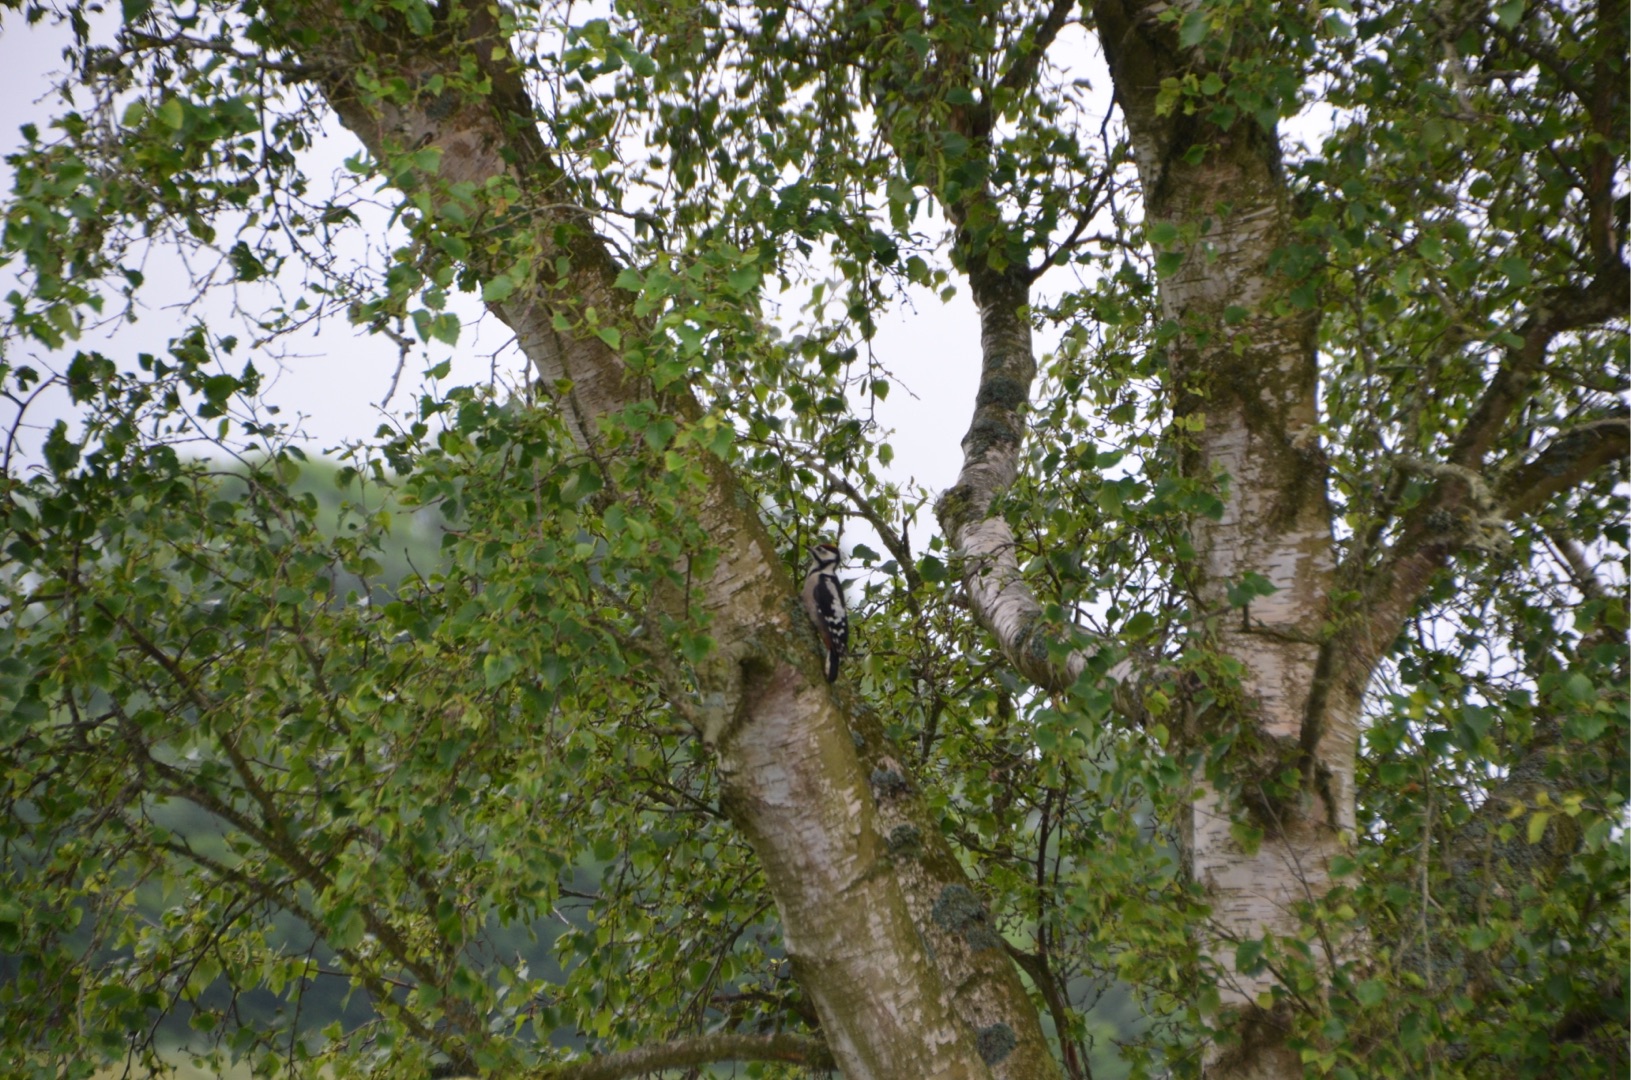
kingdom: Animalia
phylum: Chordata
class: Aves
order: Piciformes
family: Picidae
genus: Dendrocopos
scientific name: Dendrocopos major
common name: Stor flagspætte
